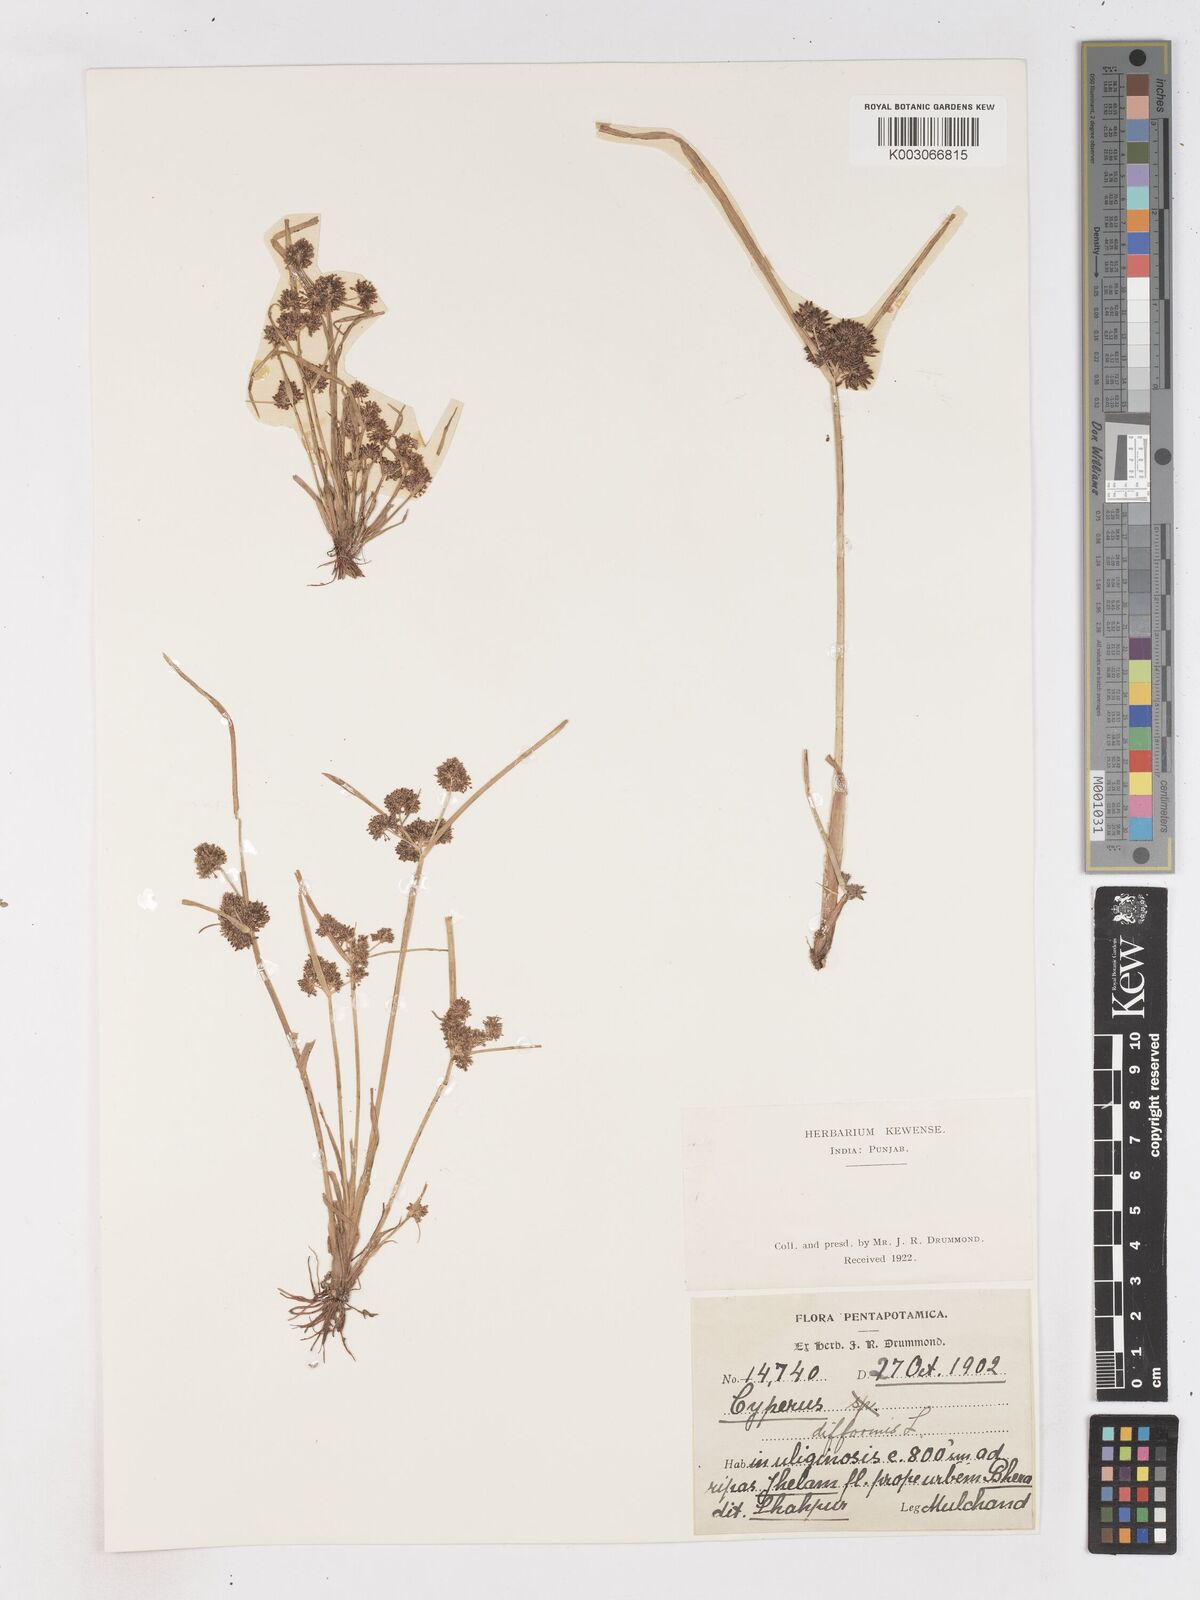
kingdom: Plantae
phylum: Tracheophyta
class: Liliopsida
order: Poales
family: Cyperaceae
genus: Cyperus
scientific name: Cyperus difformis
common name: Variable flatsedge
